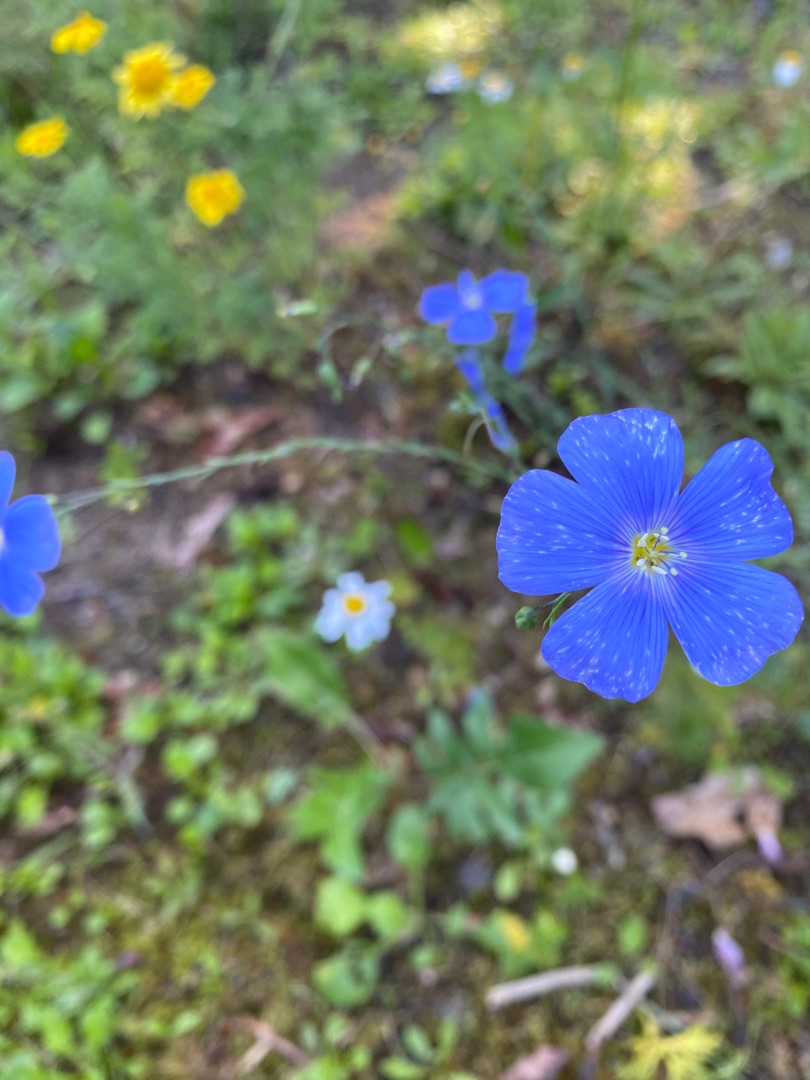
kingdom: Plantae
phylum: Tracheophyta
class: Magnoliopsida
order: Malpighiales
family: Linaceae
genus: Linum
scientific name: Linum
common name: Hørslægten
